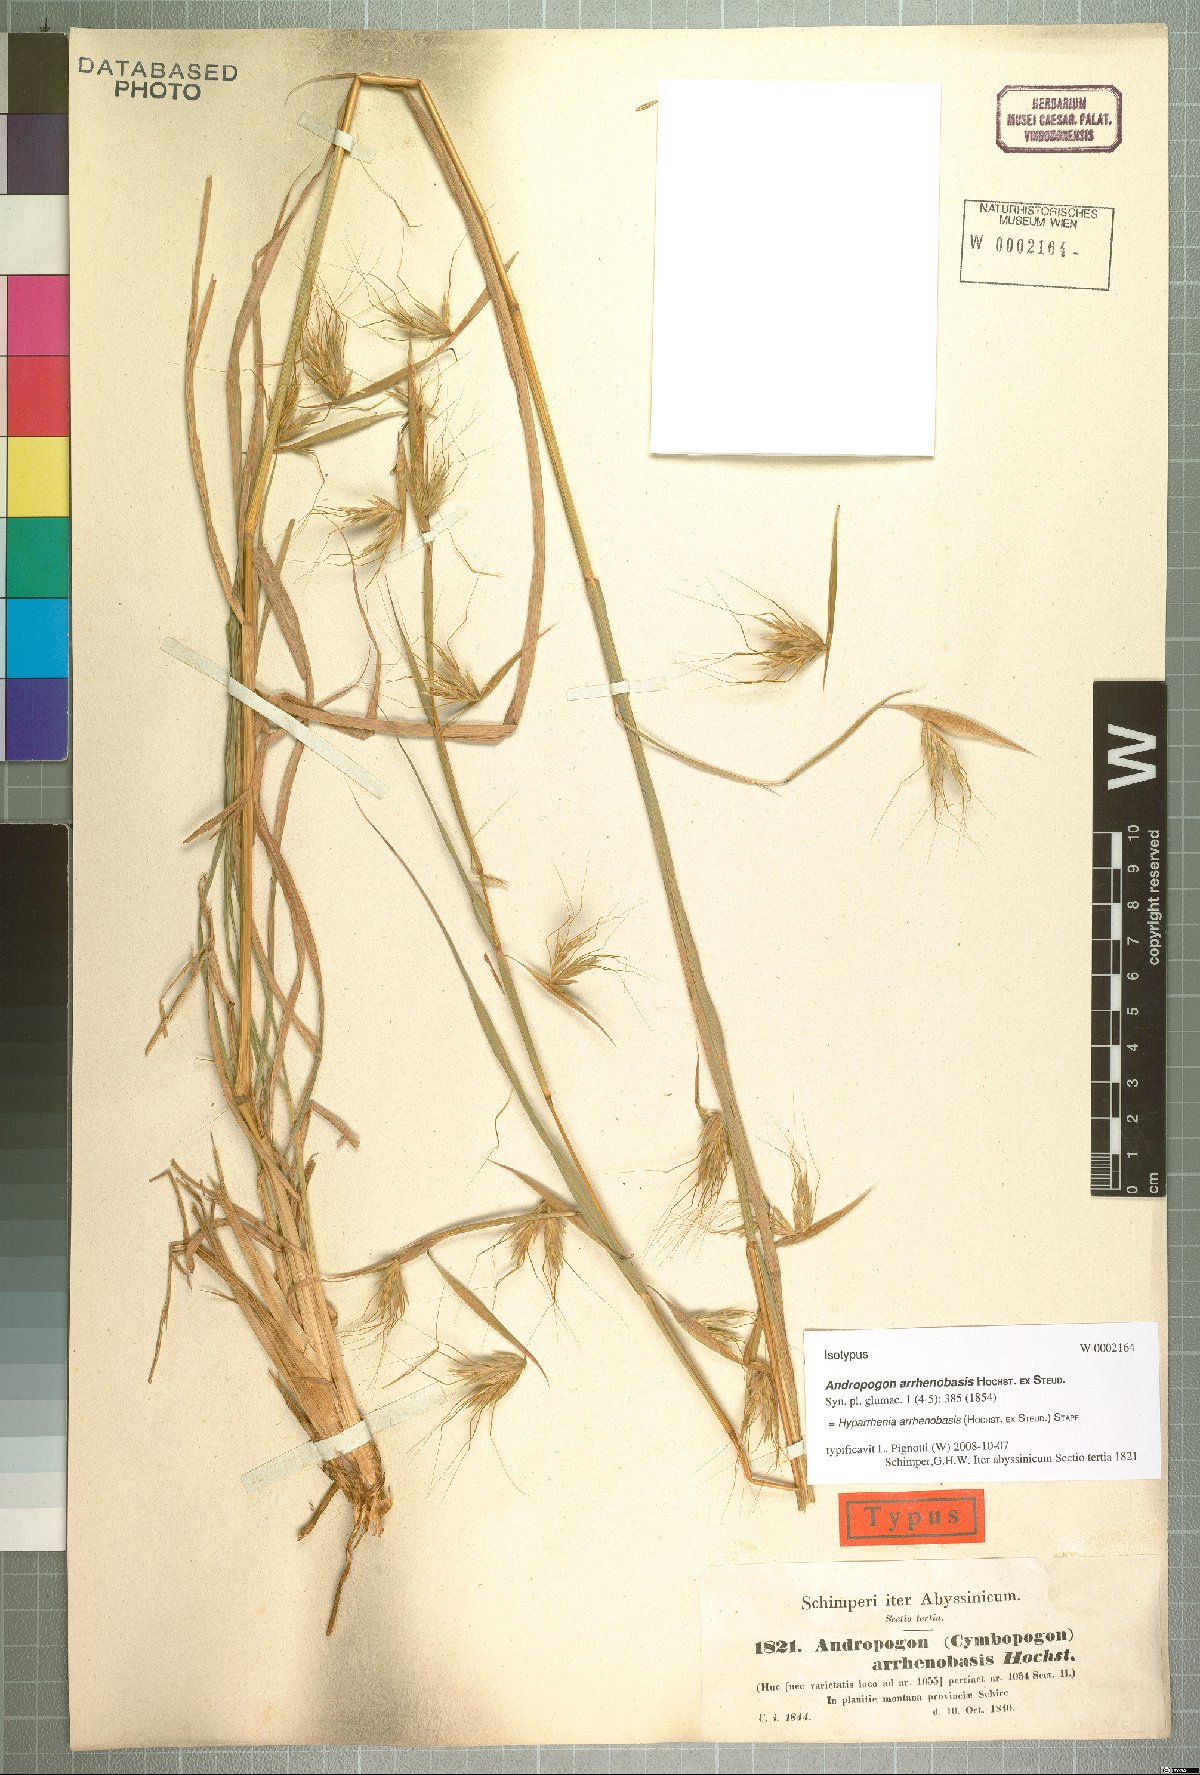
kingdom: Plantae
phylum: Tracheophyta
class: Liliopsida
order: Poales
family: Poaceae
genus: Hyparrhenia
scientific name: Hyparrhenia arrhenobasis
